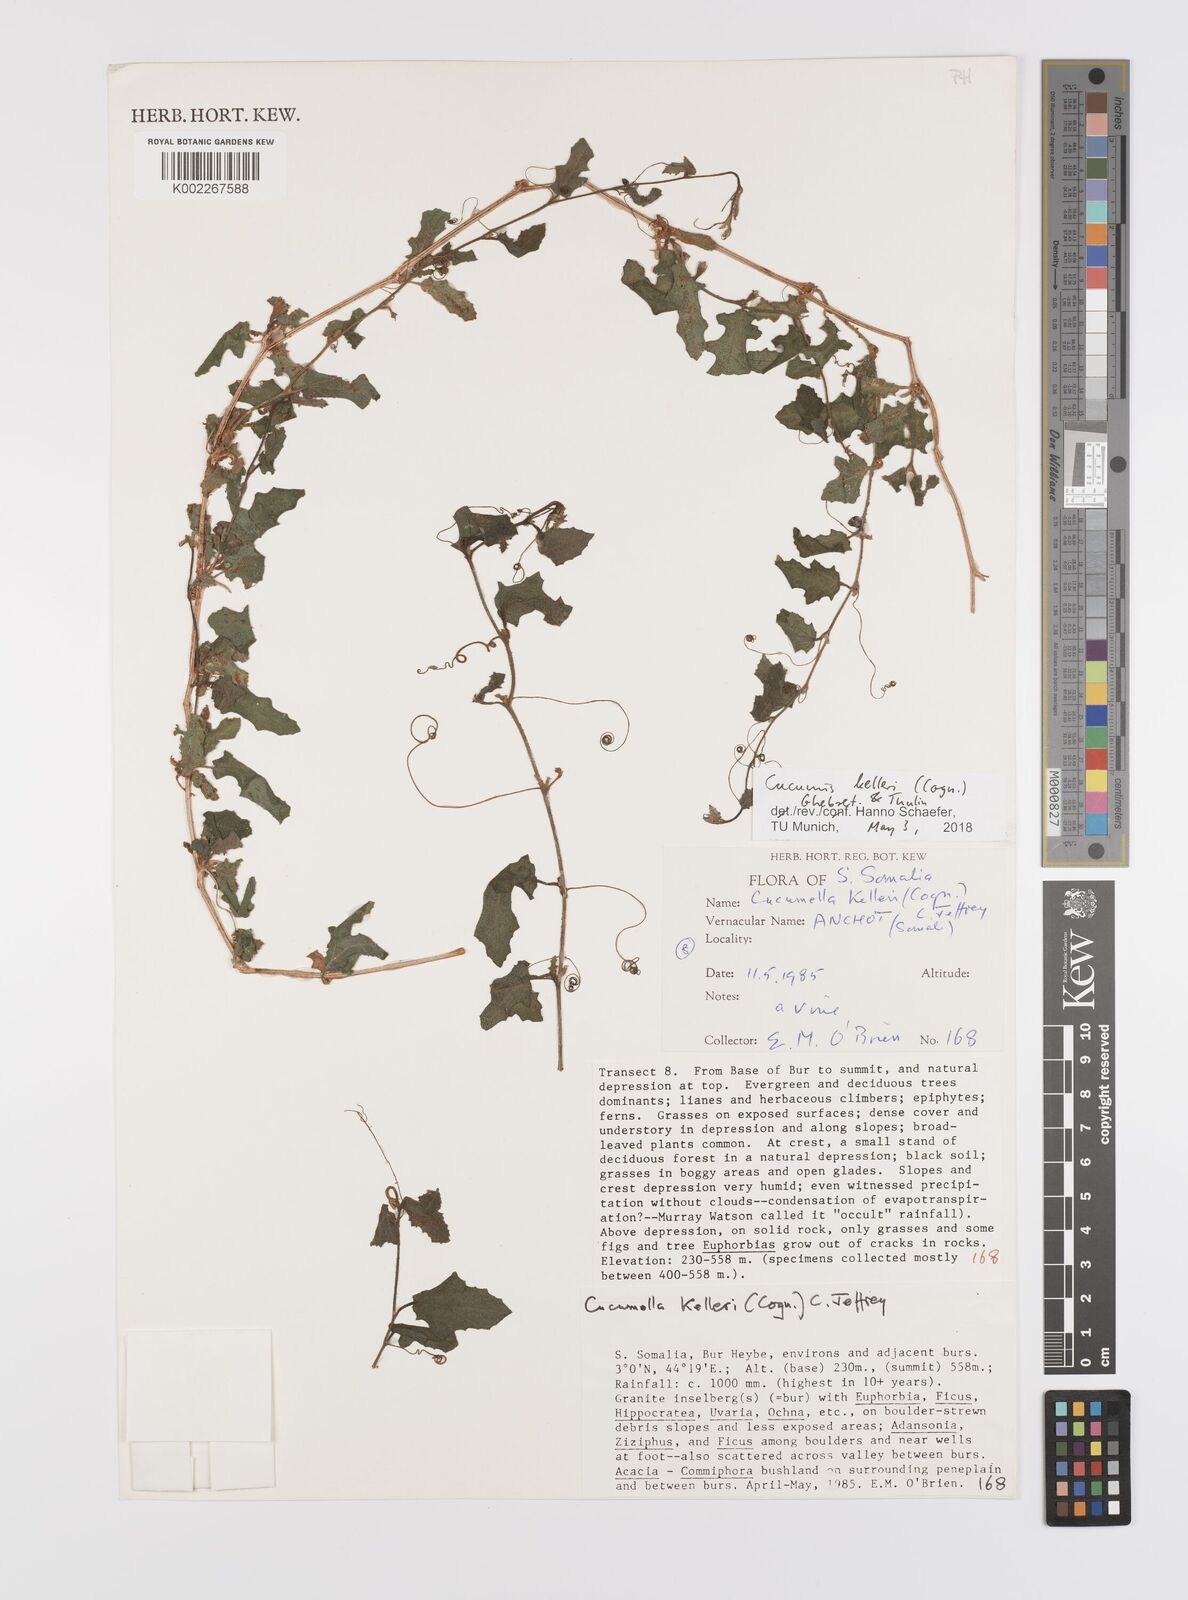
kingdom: Plantae
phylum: Tracheophyta
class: Magnoliopsida
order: Cucurbitales
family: Cucurbitaceae
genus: Cucumis
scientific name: Cucumis kelleri
